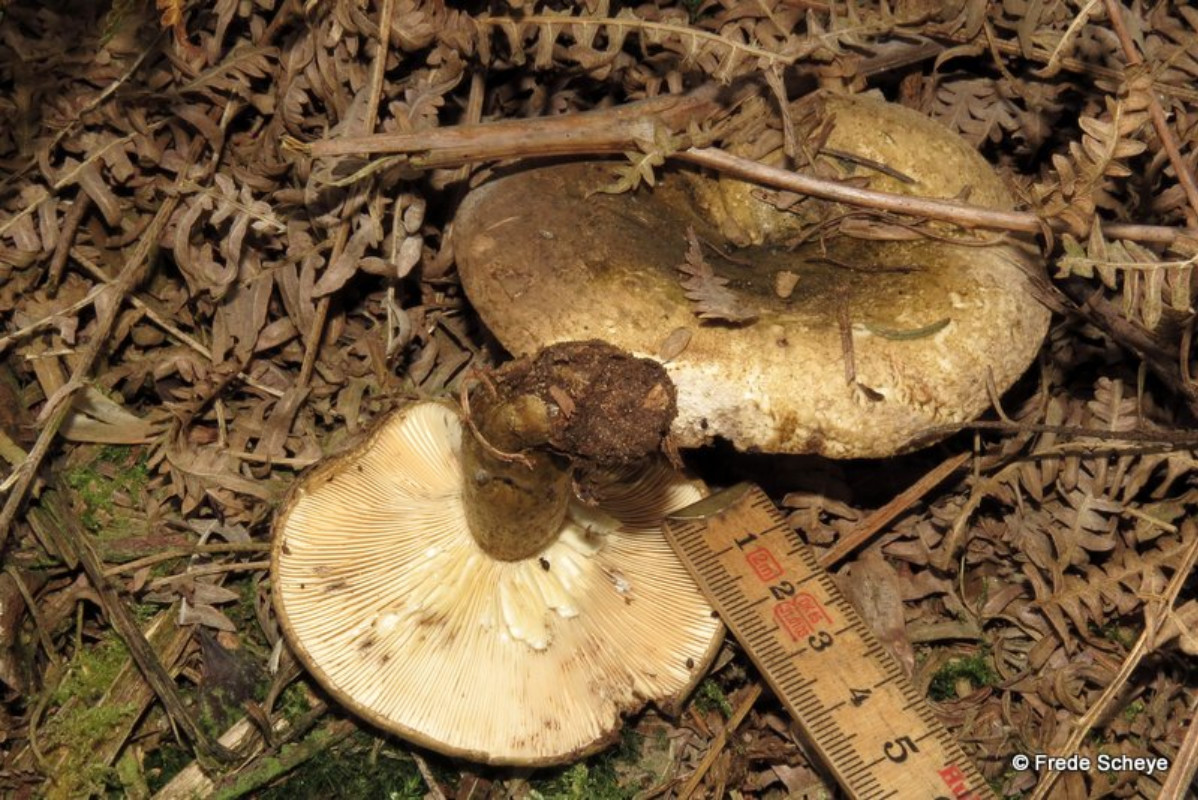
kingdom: Fungi
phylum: Basidiomycota
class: Agaricomycetes
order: Russulales
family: Russulaceae
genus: Lactarius
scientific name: Lactarius necator
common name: manddraber-mælkehat
